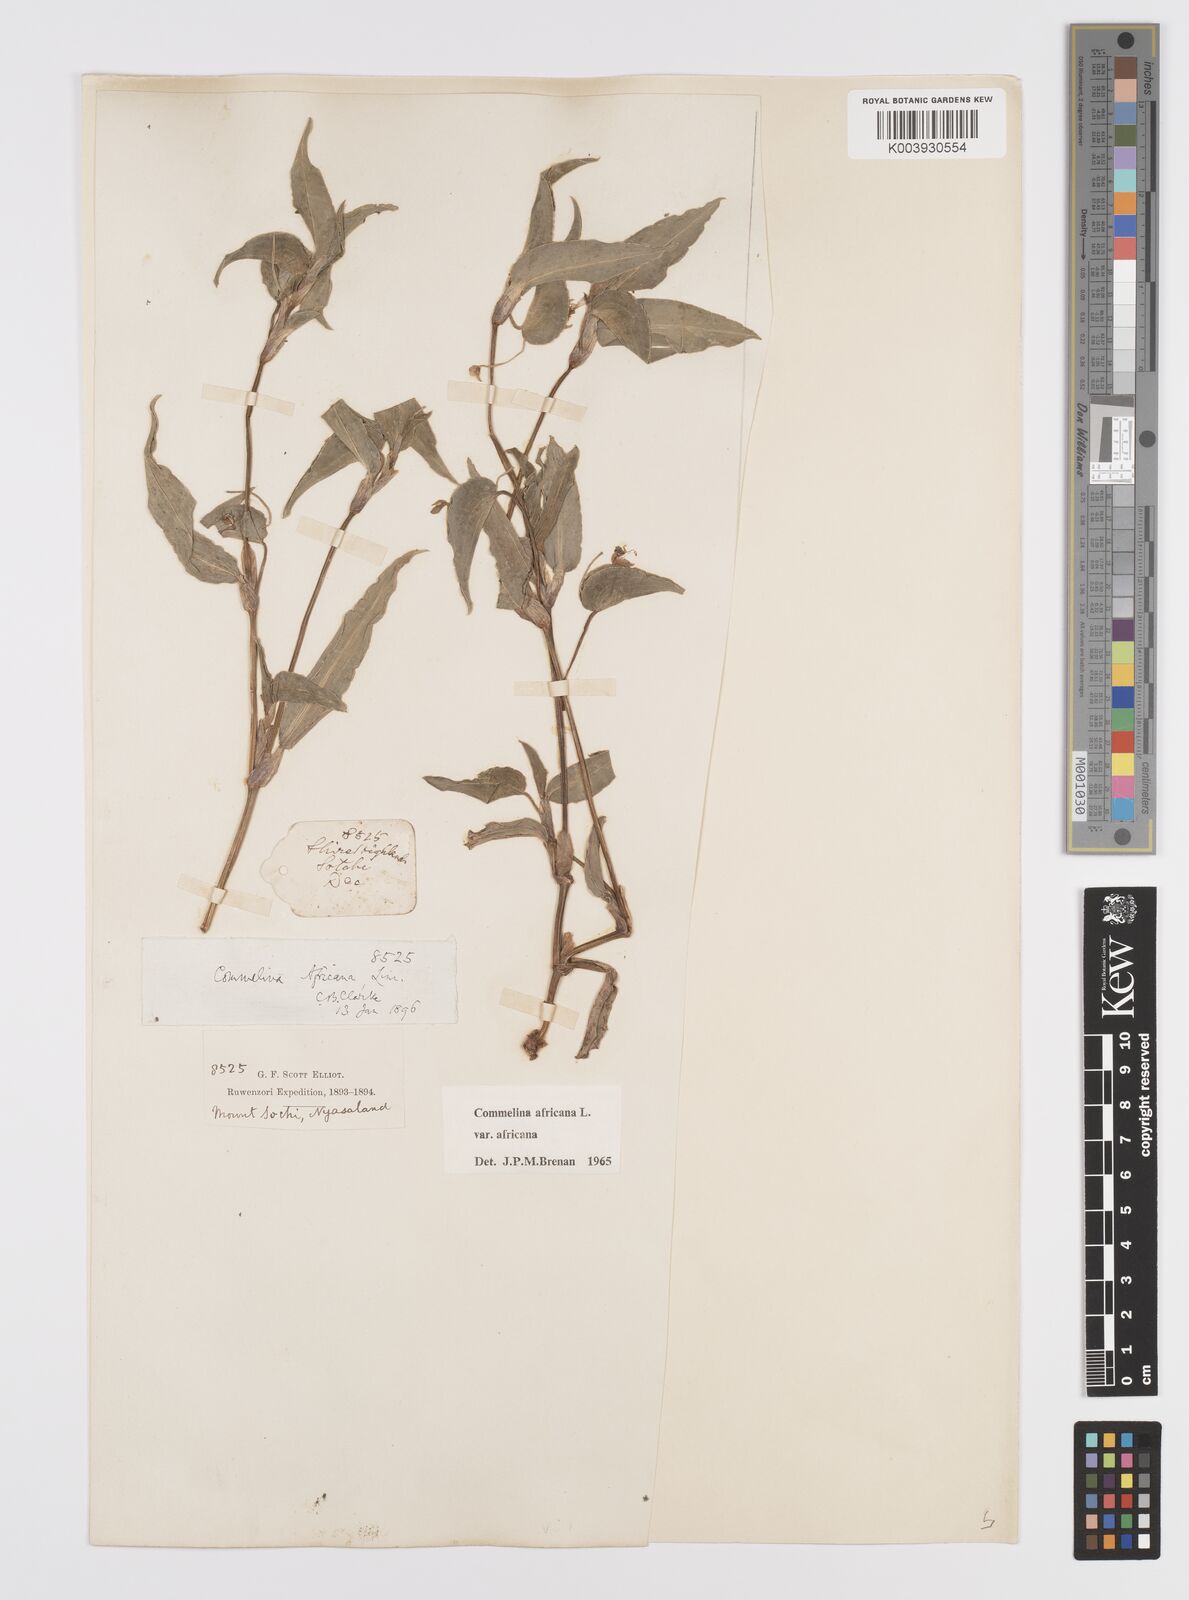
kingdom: Plantae
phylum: Tracheophyta
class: Liliopsida
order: Commelinales
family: Commelinaceae
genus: Commelina
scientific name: Commelina africana
